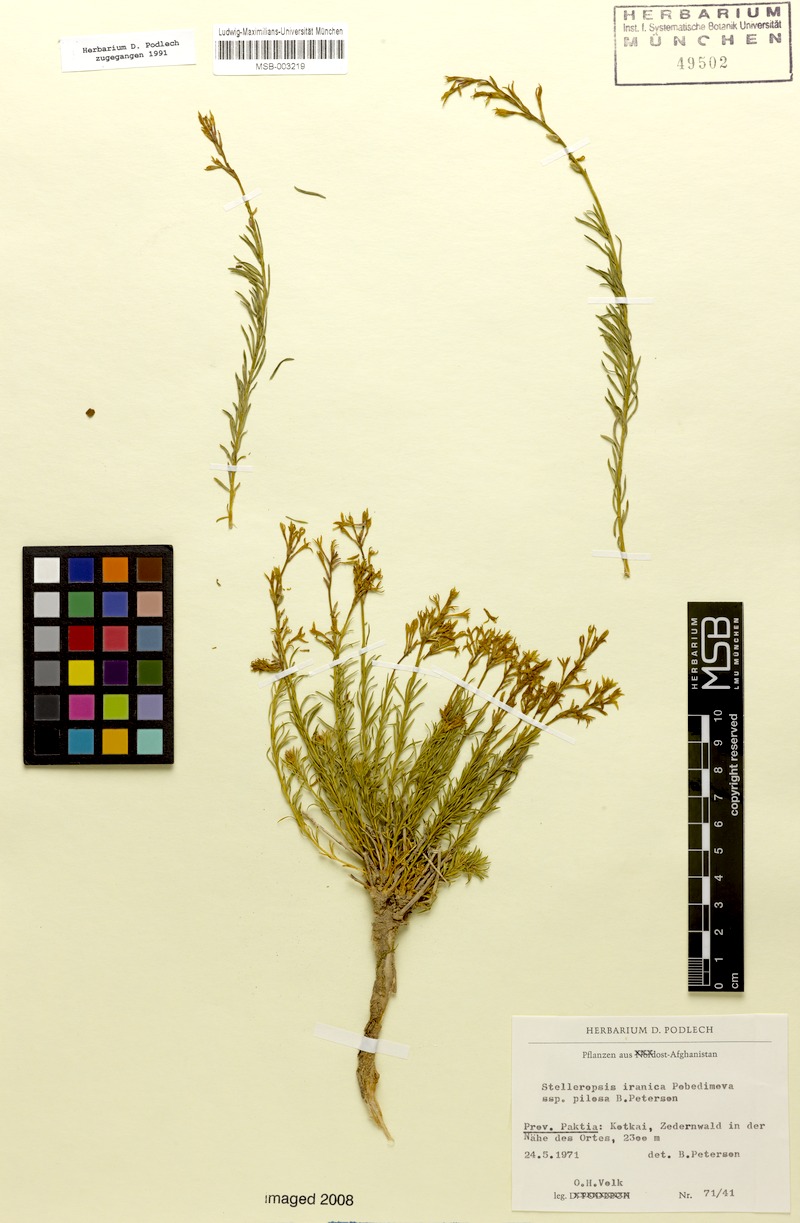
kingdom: Plantae
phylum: Tracheophyta
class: Magnoliopsida
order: Malvales
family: Thymelaeaceae
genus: Diarthron
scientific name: Diarthron iranicum
